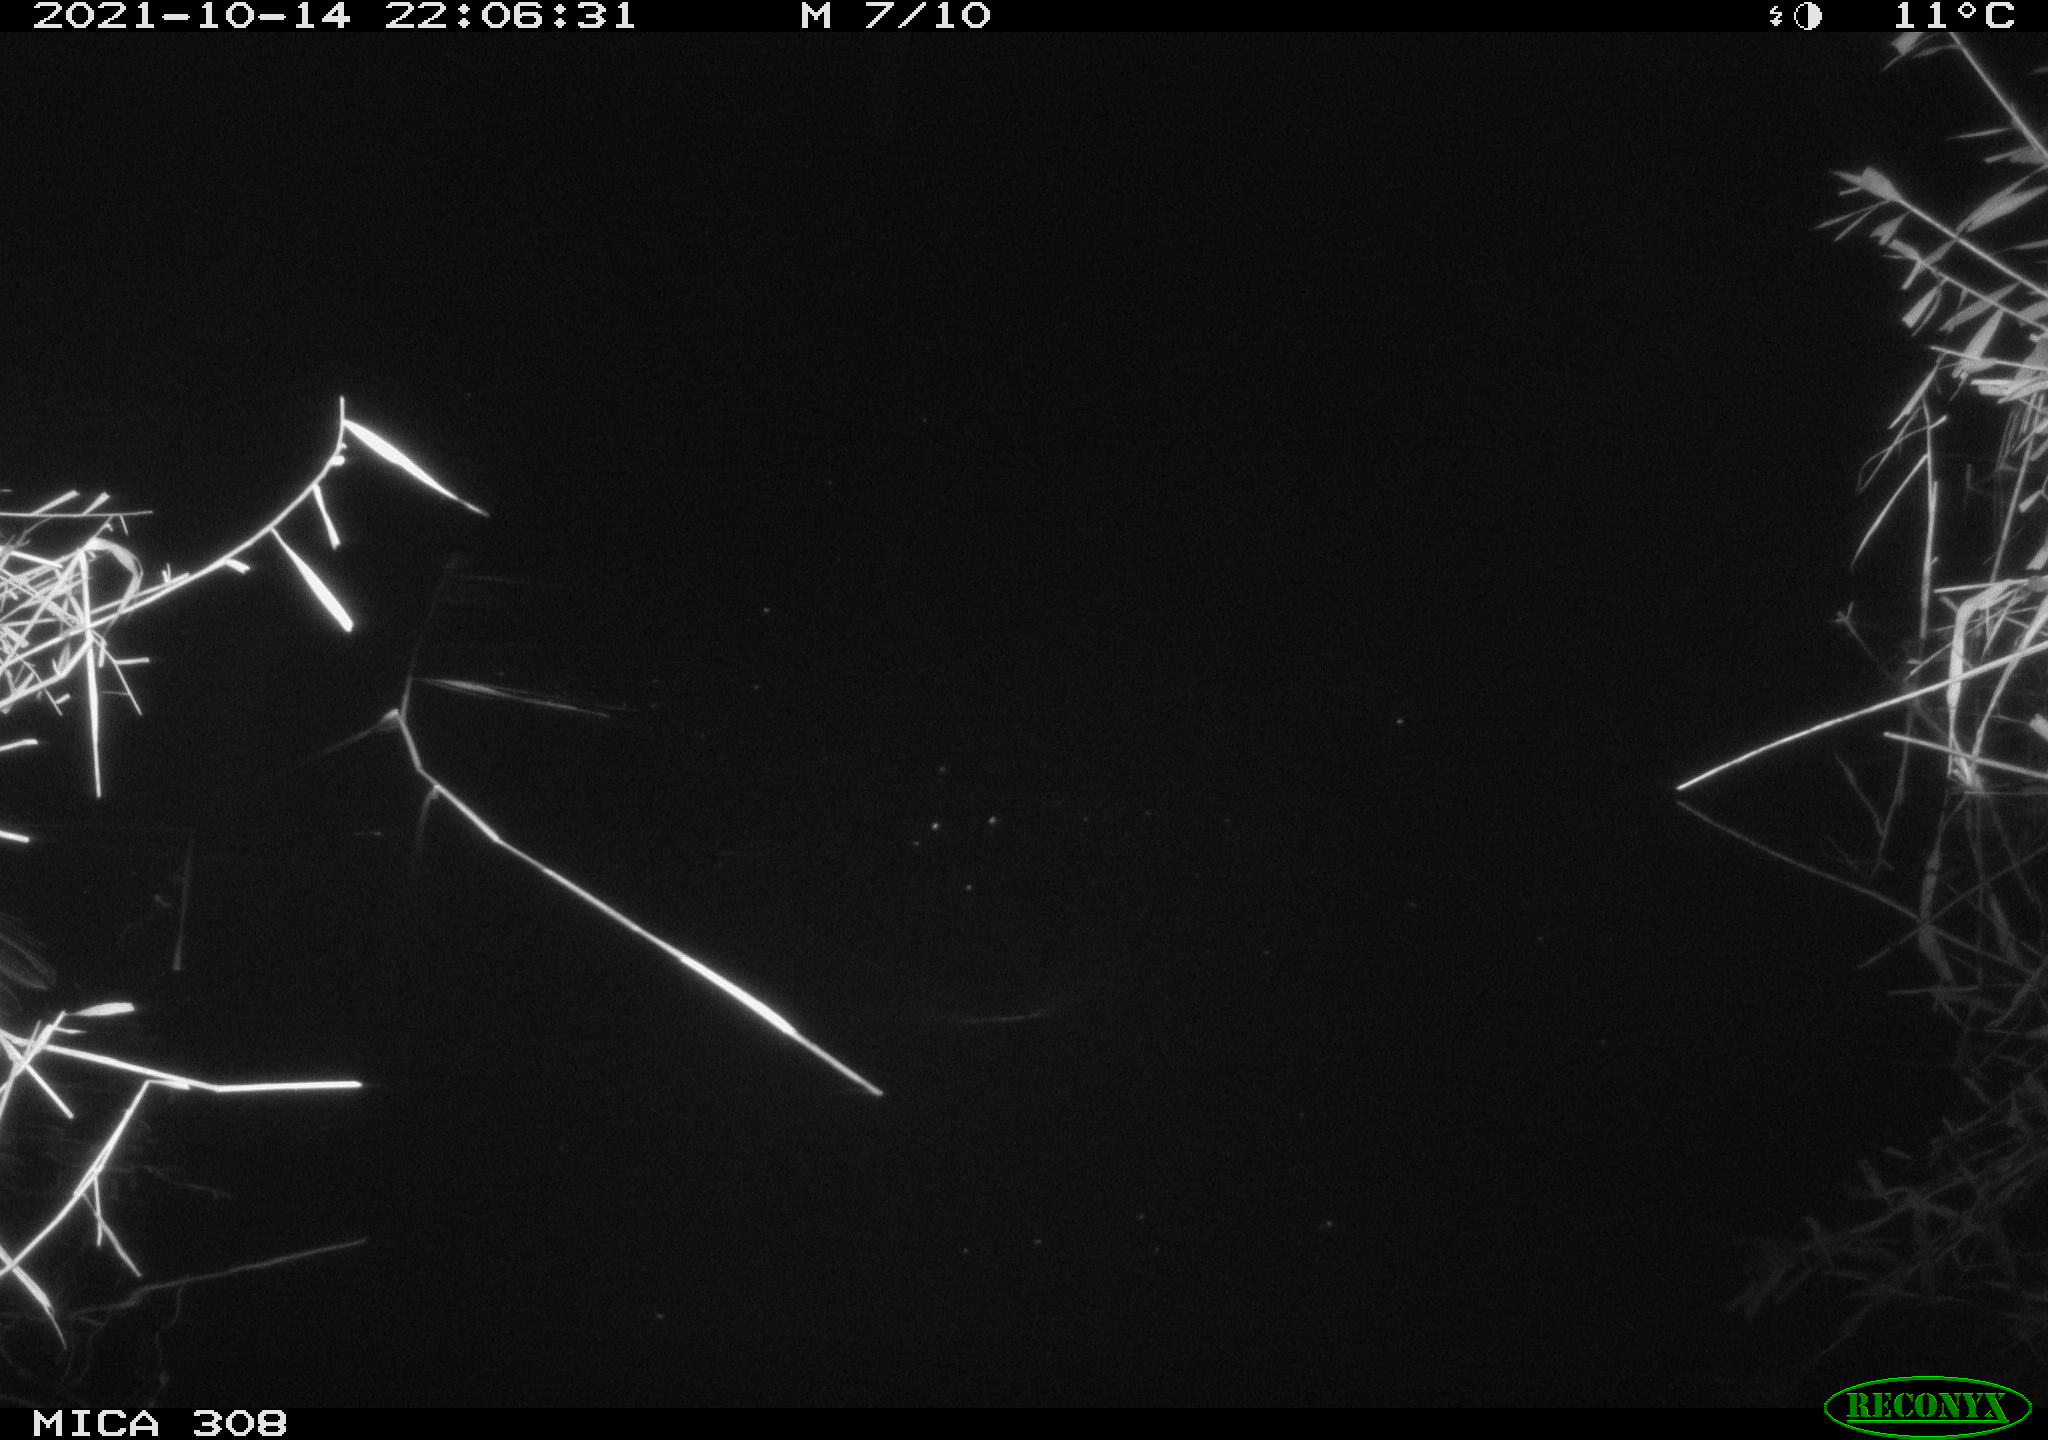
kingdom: Animalia
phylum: Chordata
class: Aves
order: Anseriformes
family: Anatidae
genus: Spatula
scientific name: Spatula clypeata
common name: Northern shoveler
